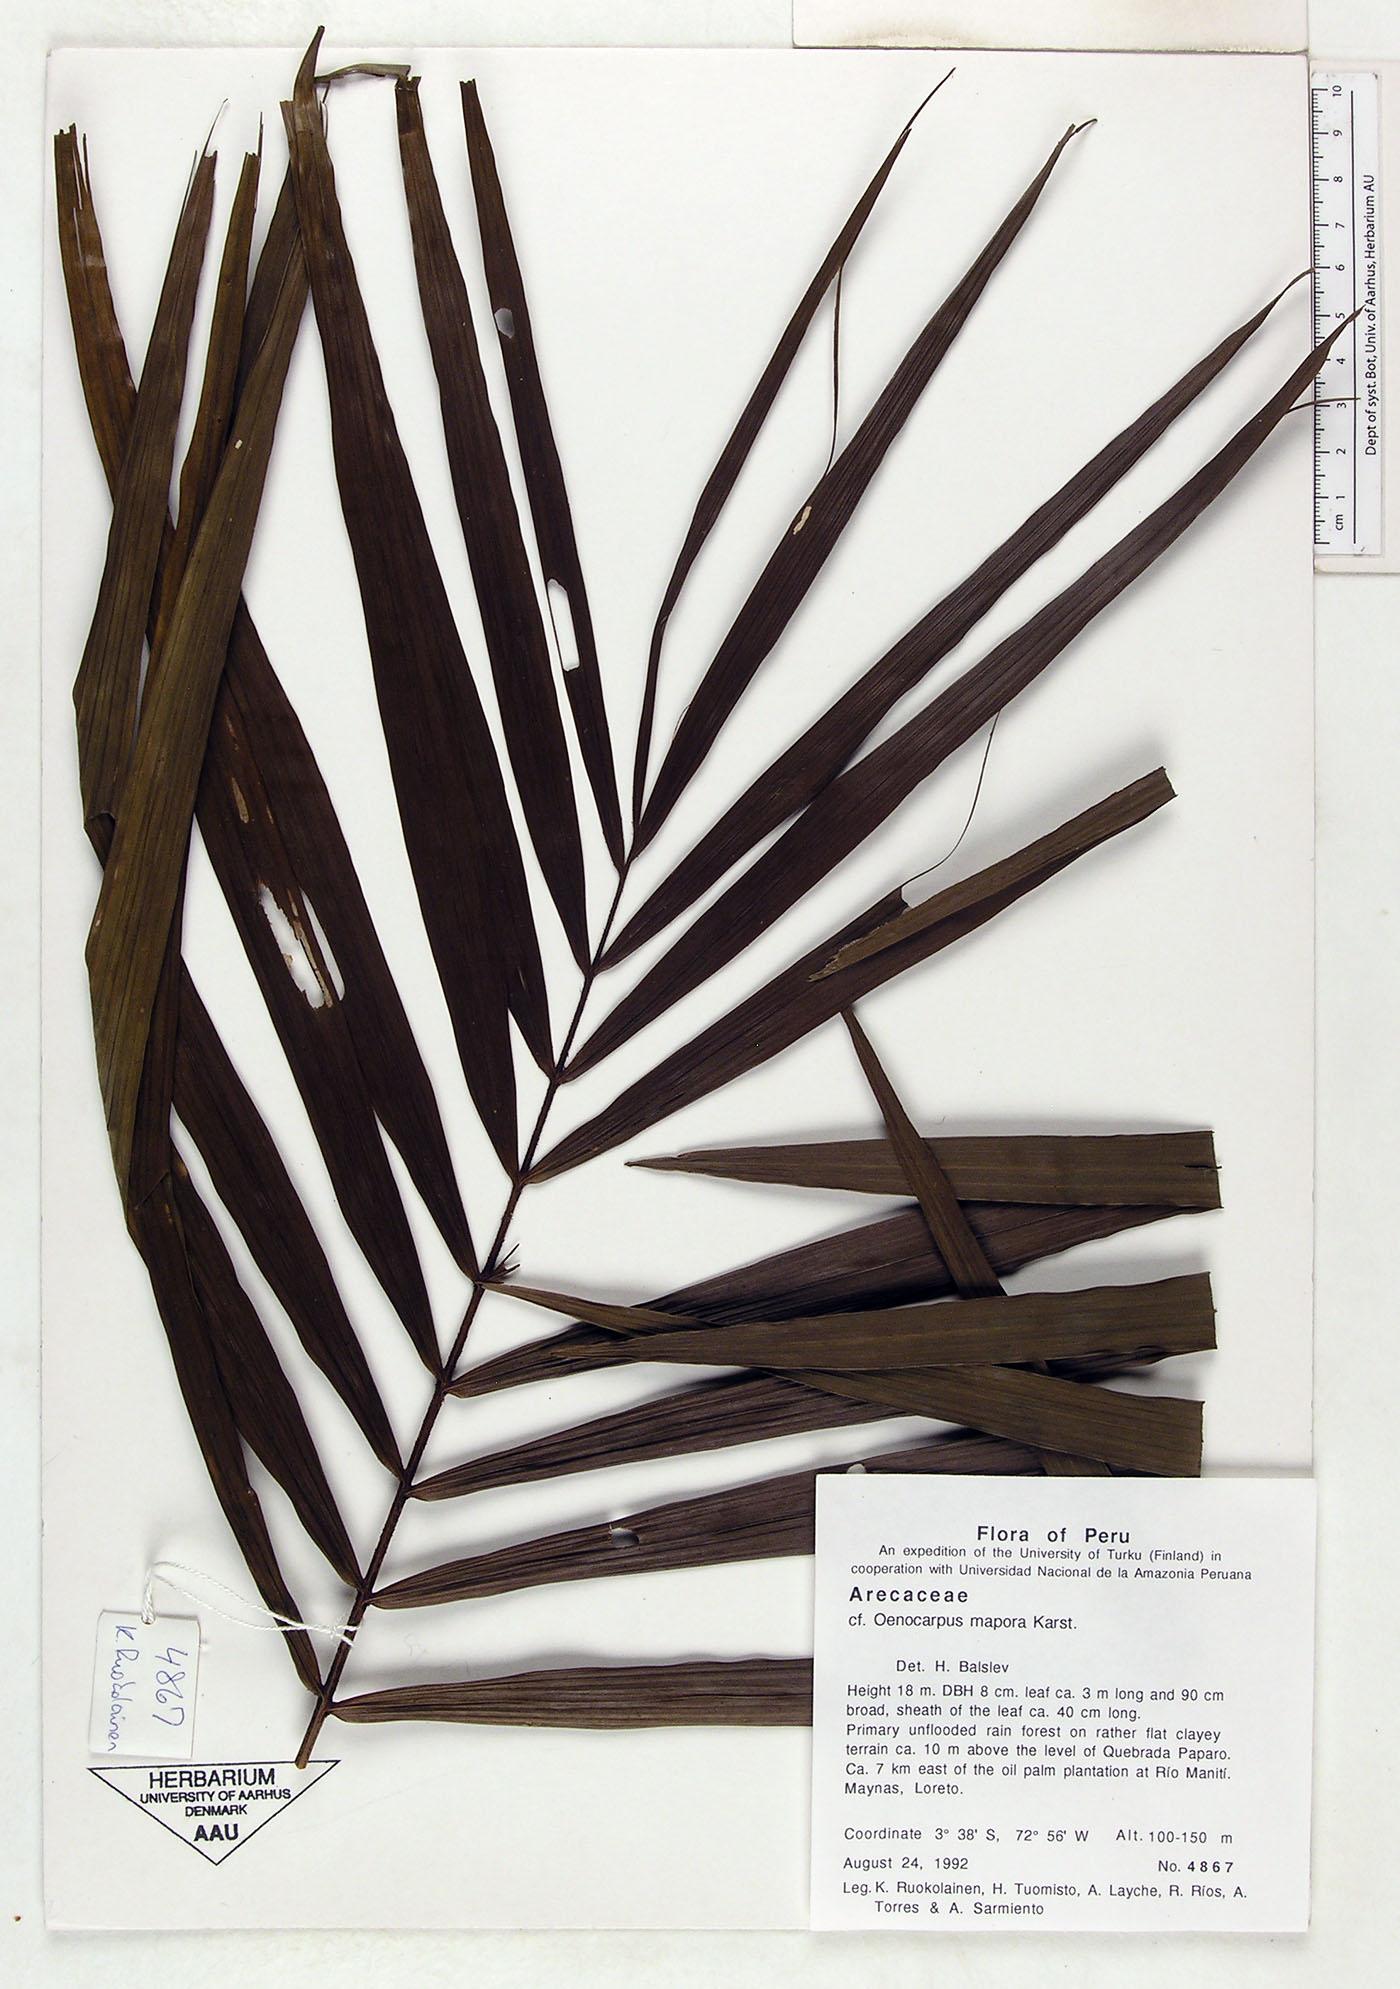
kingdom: Plantae
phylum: Tracheophyta
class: Liliopsida
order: Arecales
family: Arecaceae
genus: Oenocarpus
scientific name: Oenocarpus mapora
